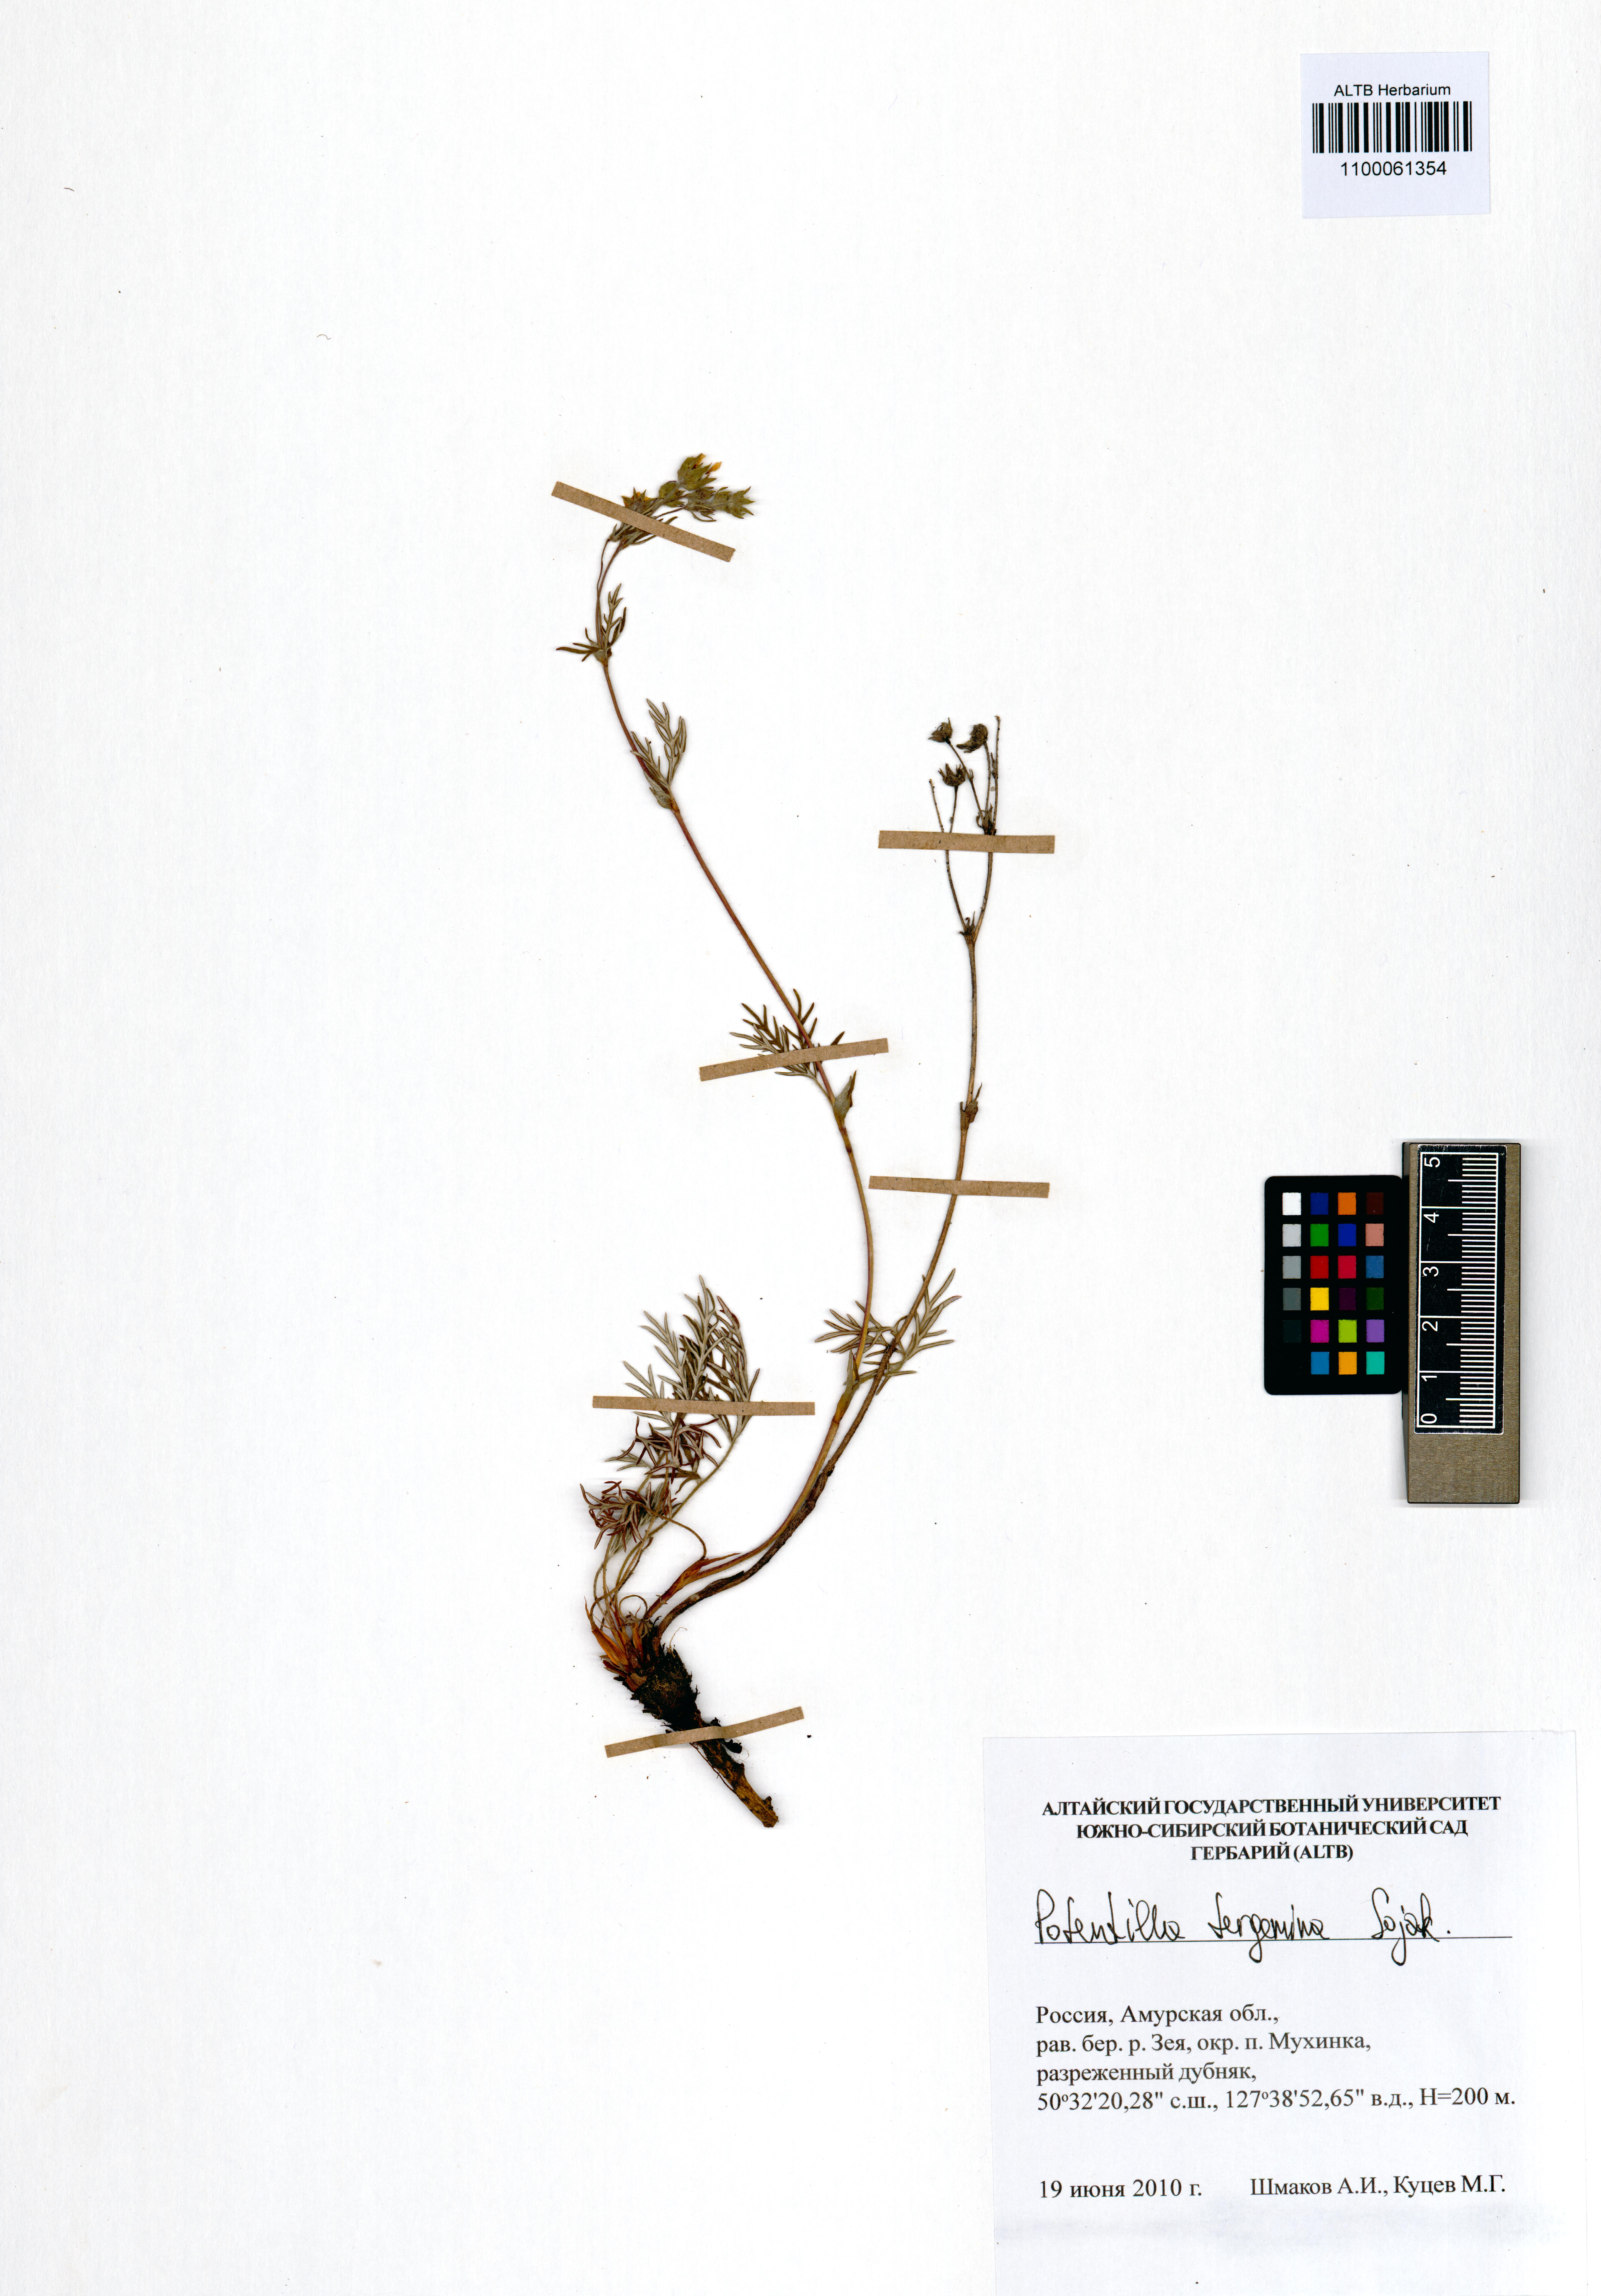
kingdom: Plantae
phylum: Tracheophyta
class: Magnoliopsida
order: Rosales
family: Rosaceae
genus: Potentilla
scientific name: Potentilla tergemina
